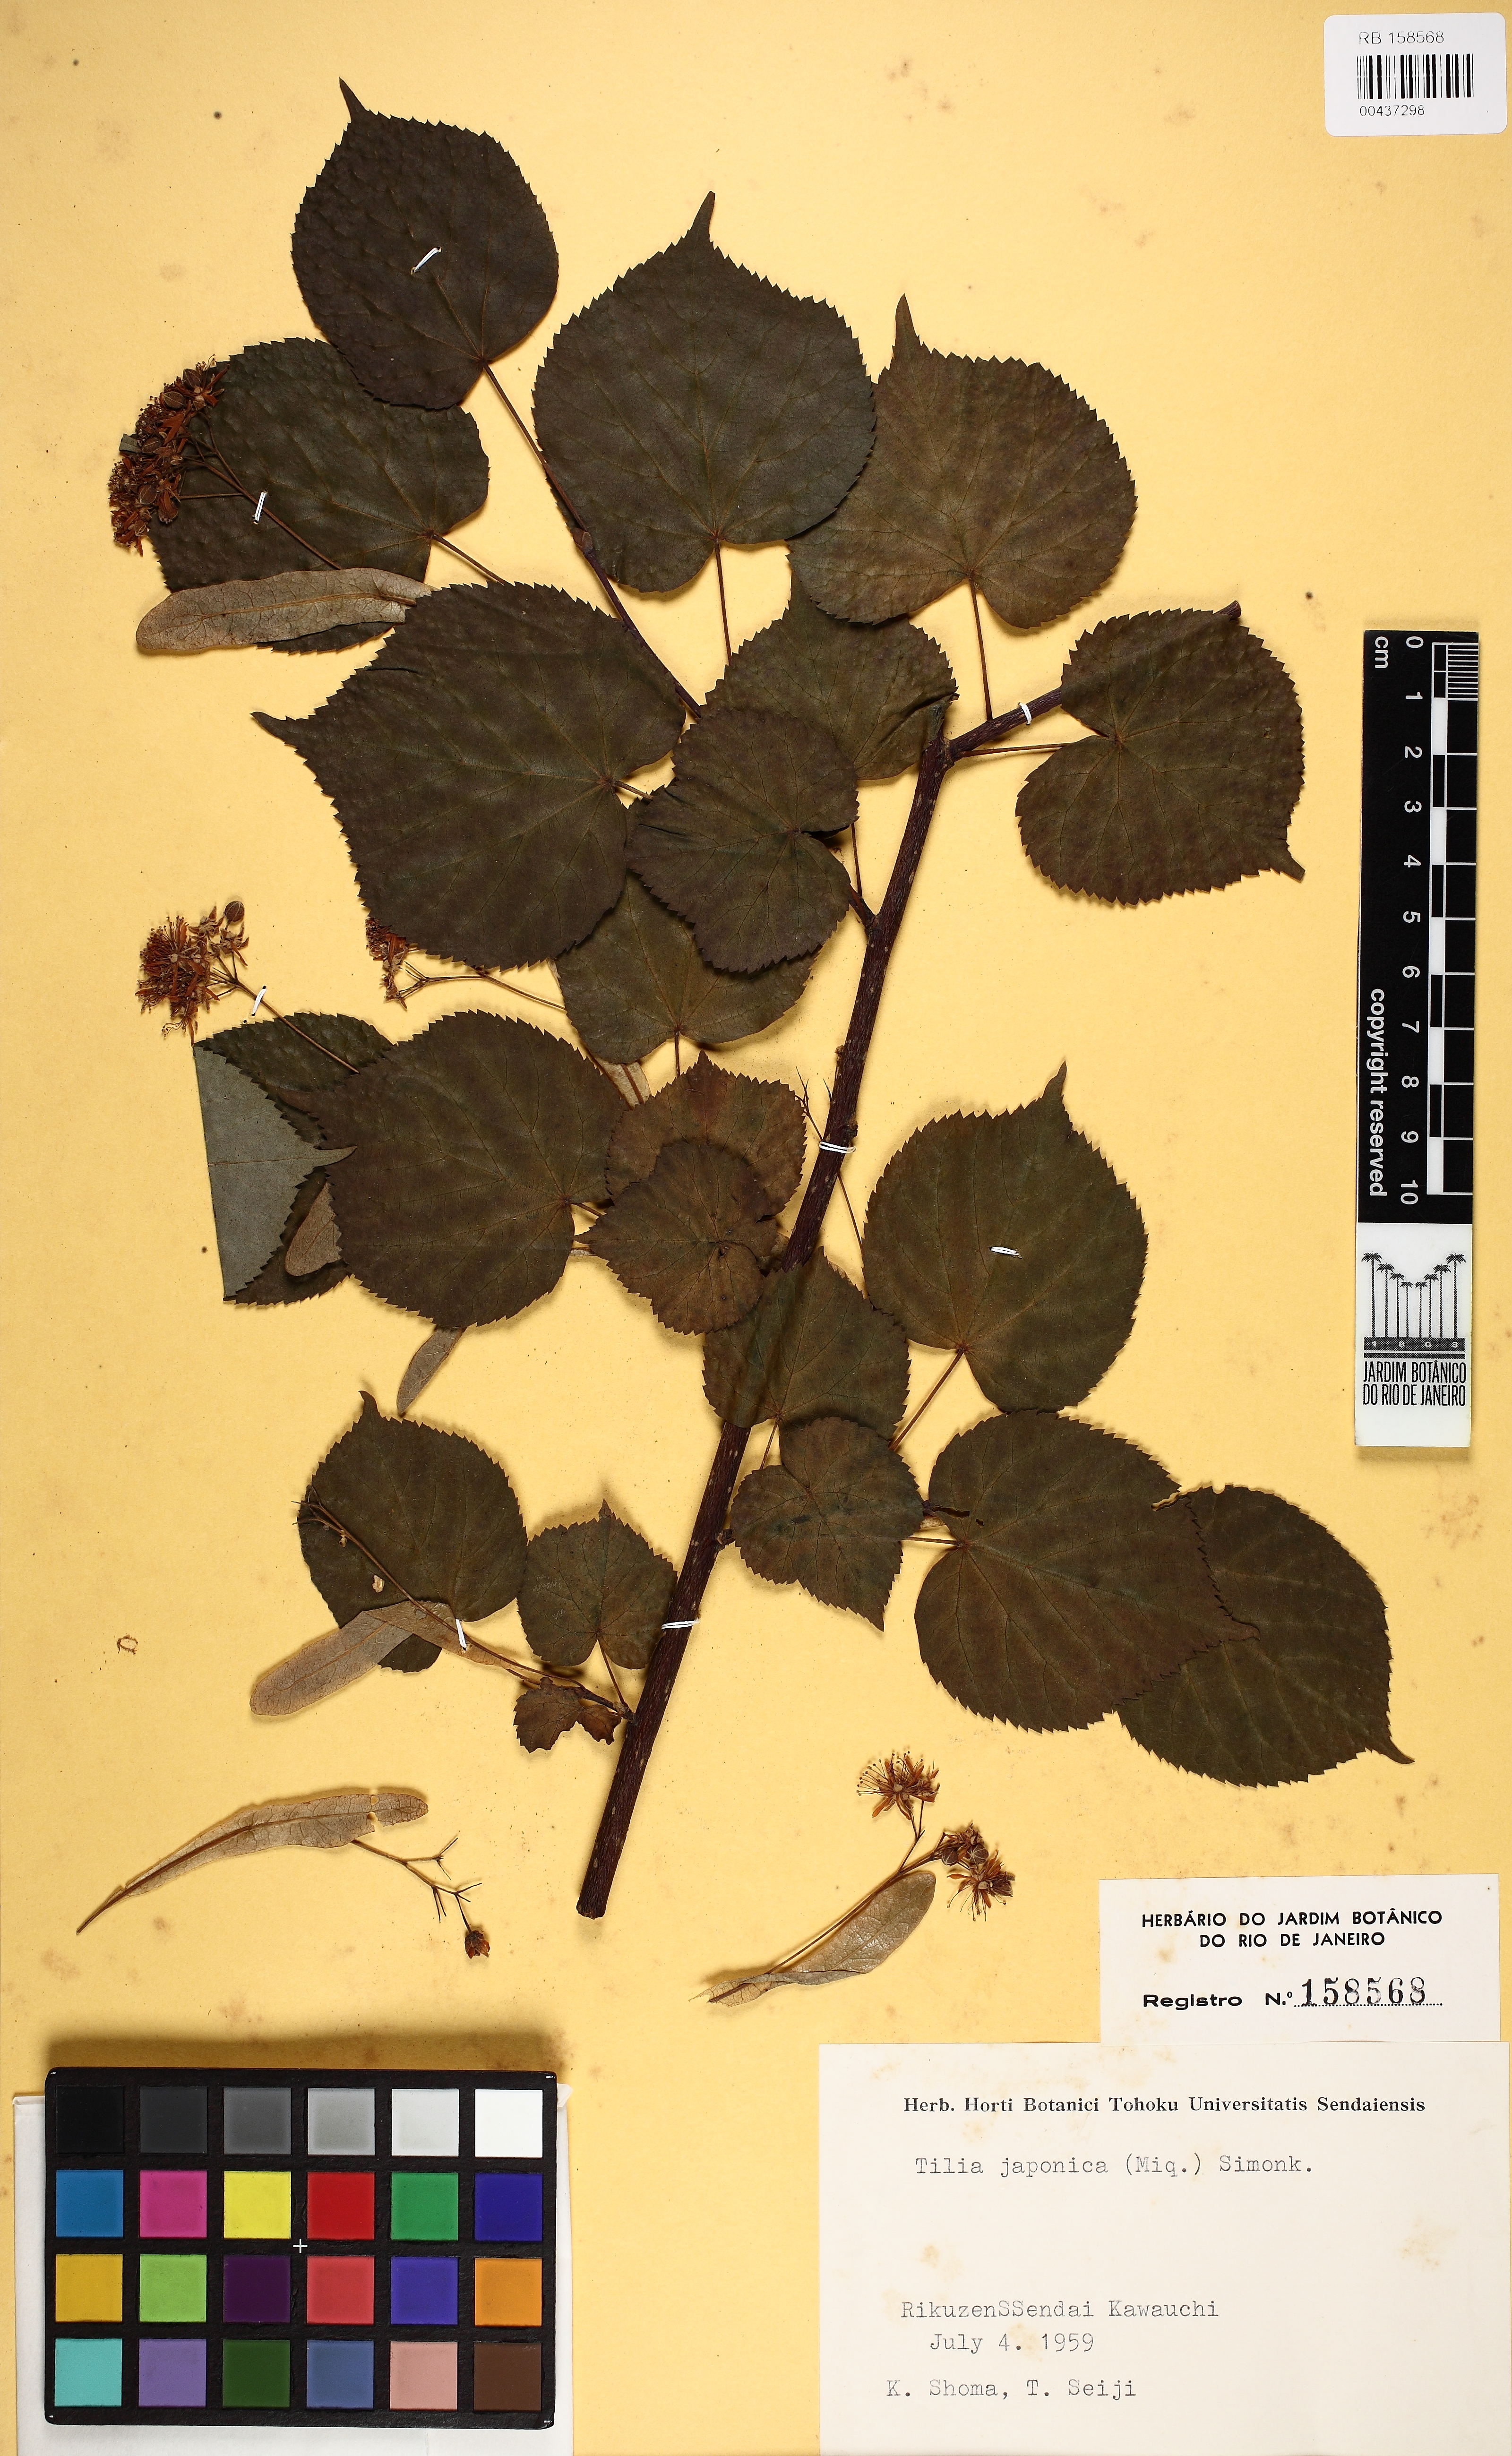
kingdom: Plantae
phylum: Tracheophyta
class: Magnoliopsida
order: Malvales
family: Malvaceae
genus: Tilia
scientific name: Tilia japonica
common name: Japanese lime
